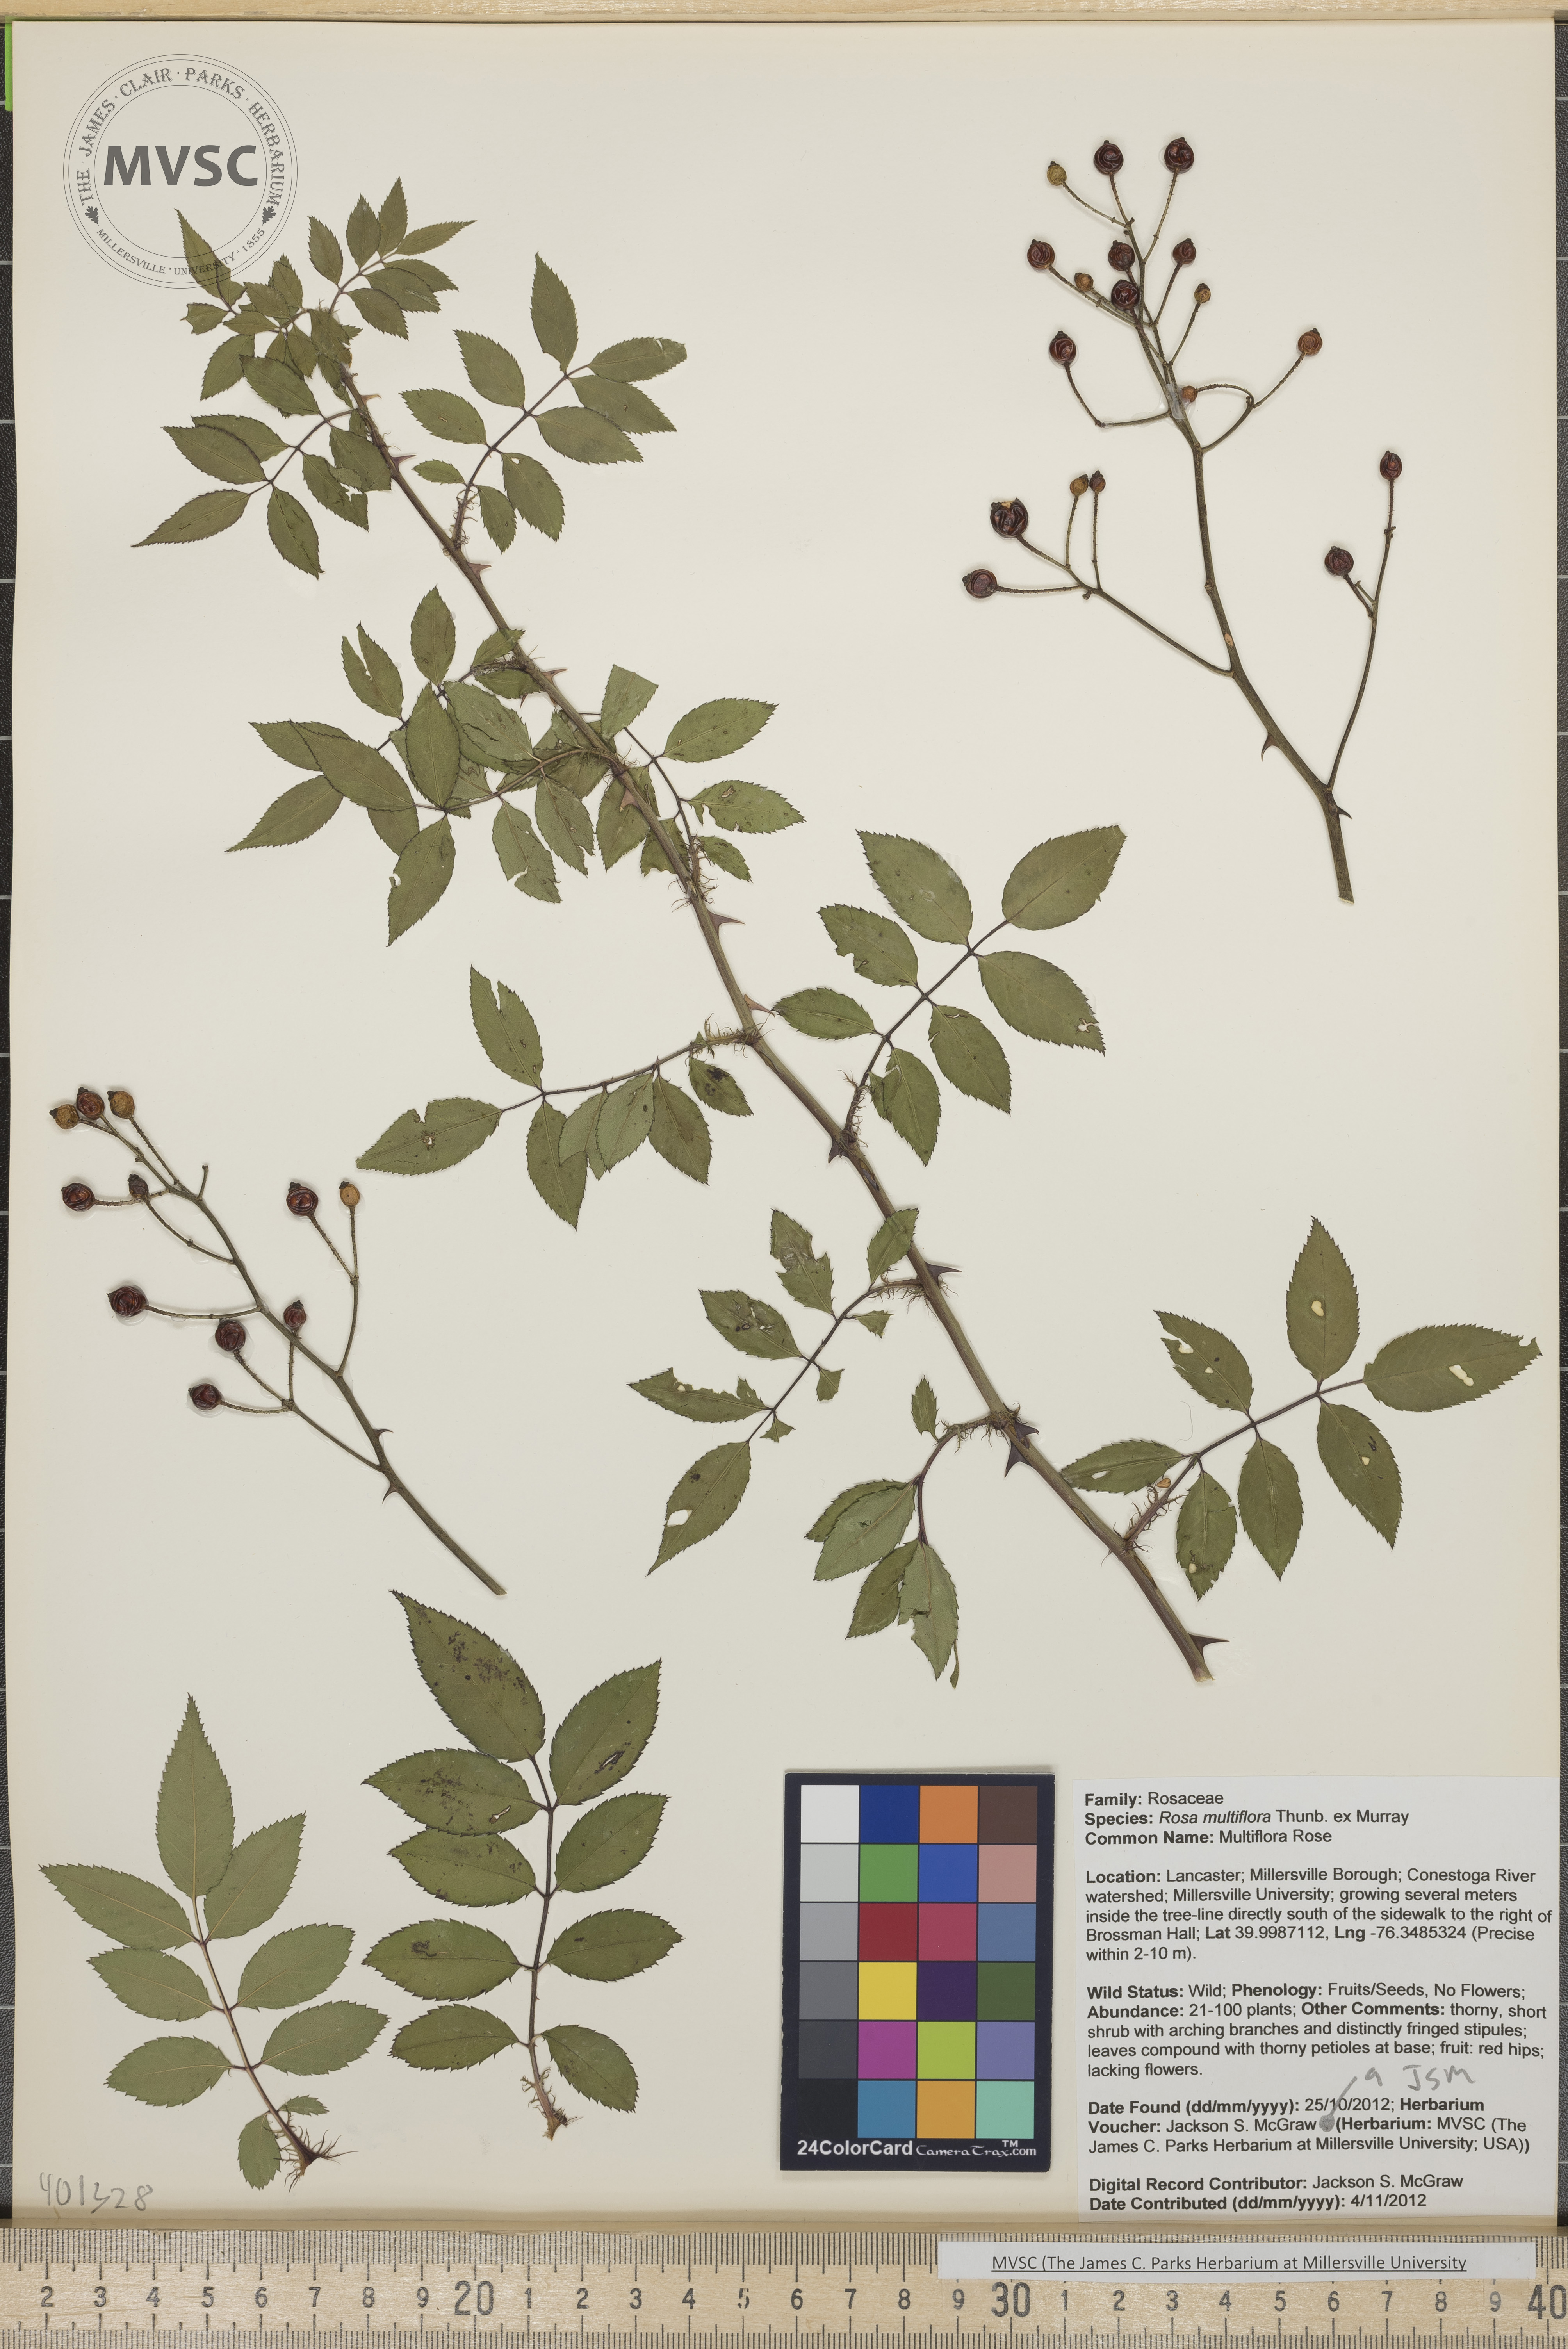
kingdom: Plantae
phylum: Tracheophyta
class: Magnoliopsida
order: Rosales
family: Rosaceae
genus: Rosa
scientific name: Rosa multiflora
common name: Multiflora Rose
